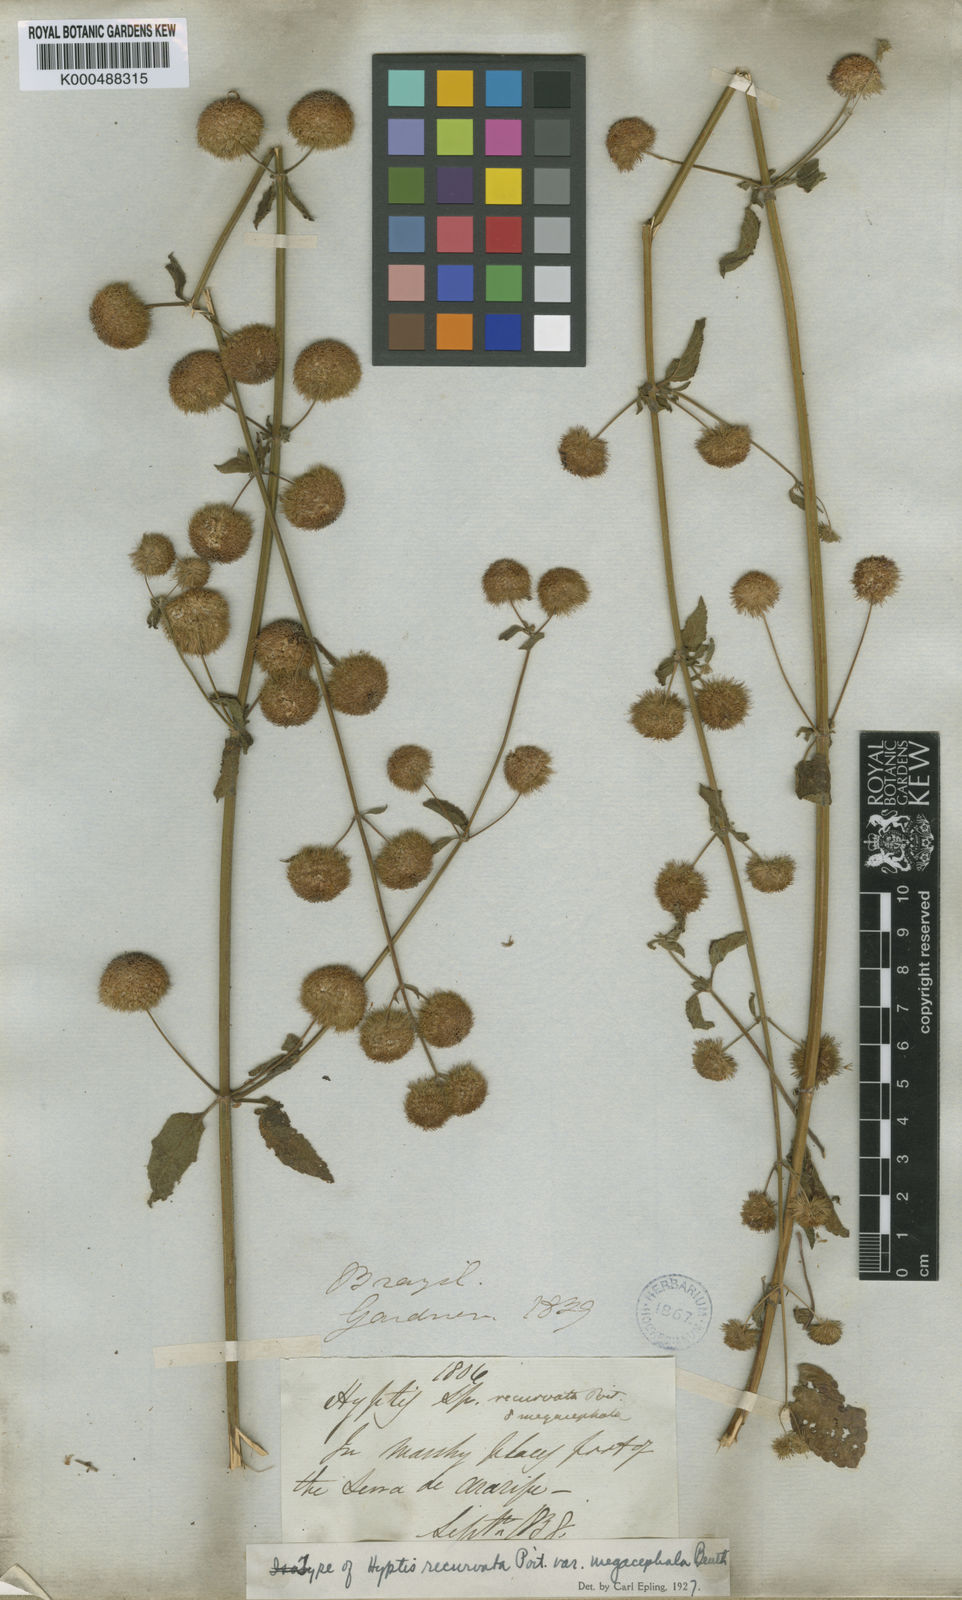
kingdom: Plantae
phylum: Tracheophyta
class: Magnoliopsida
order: Lamiales
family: Lamiaceae
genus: Hyptis
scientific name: Hyptis recurvata
